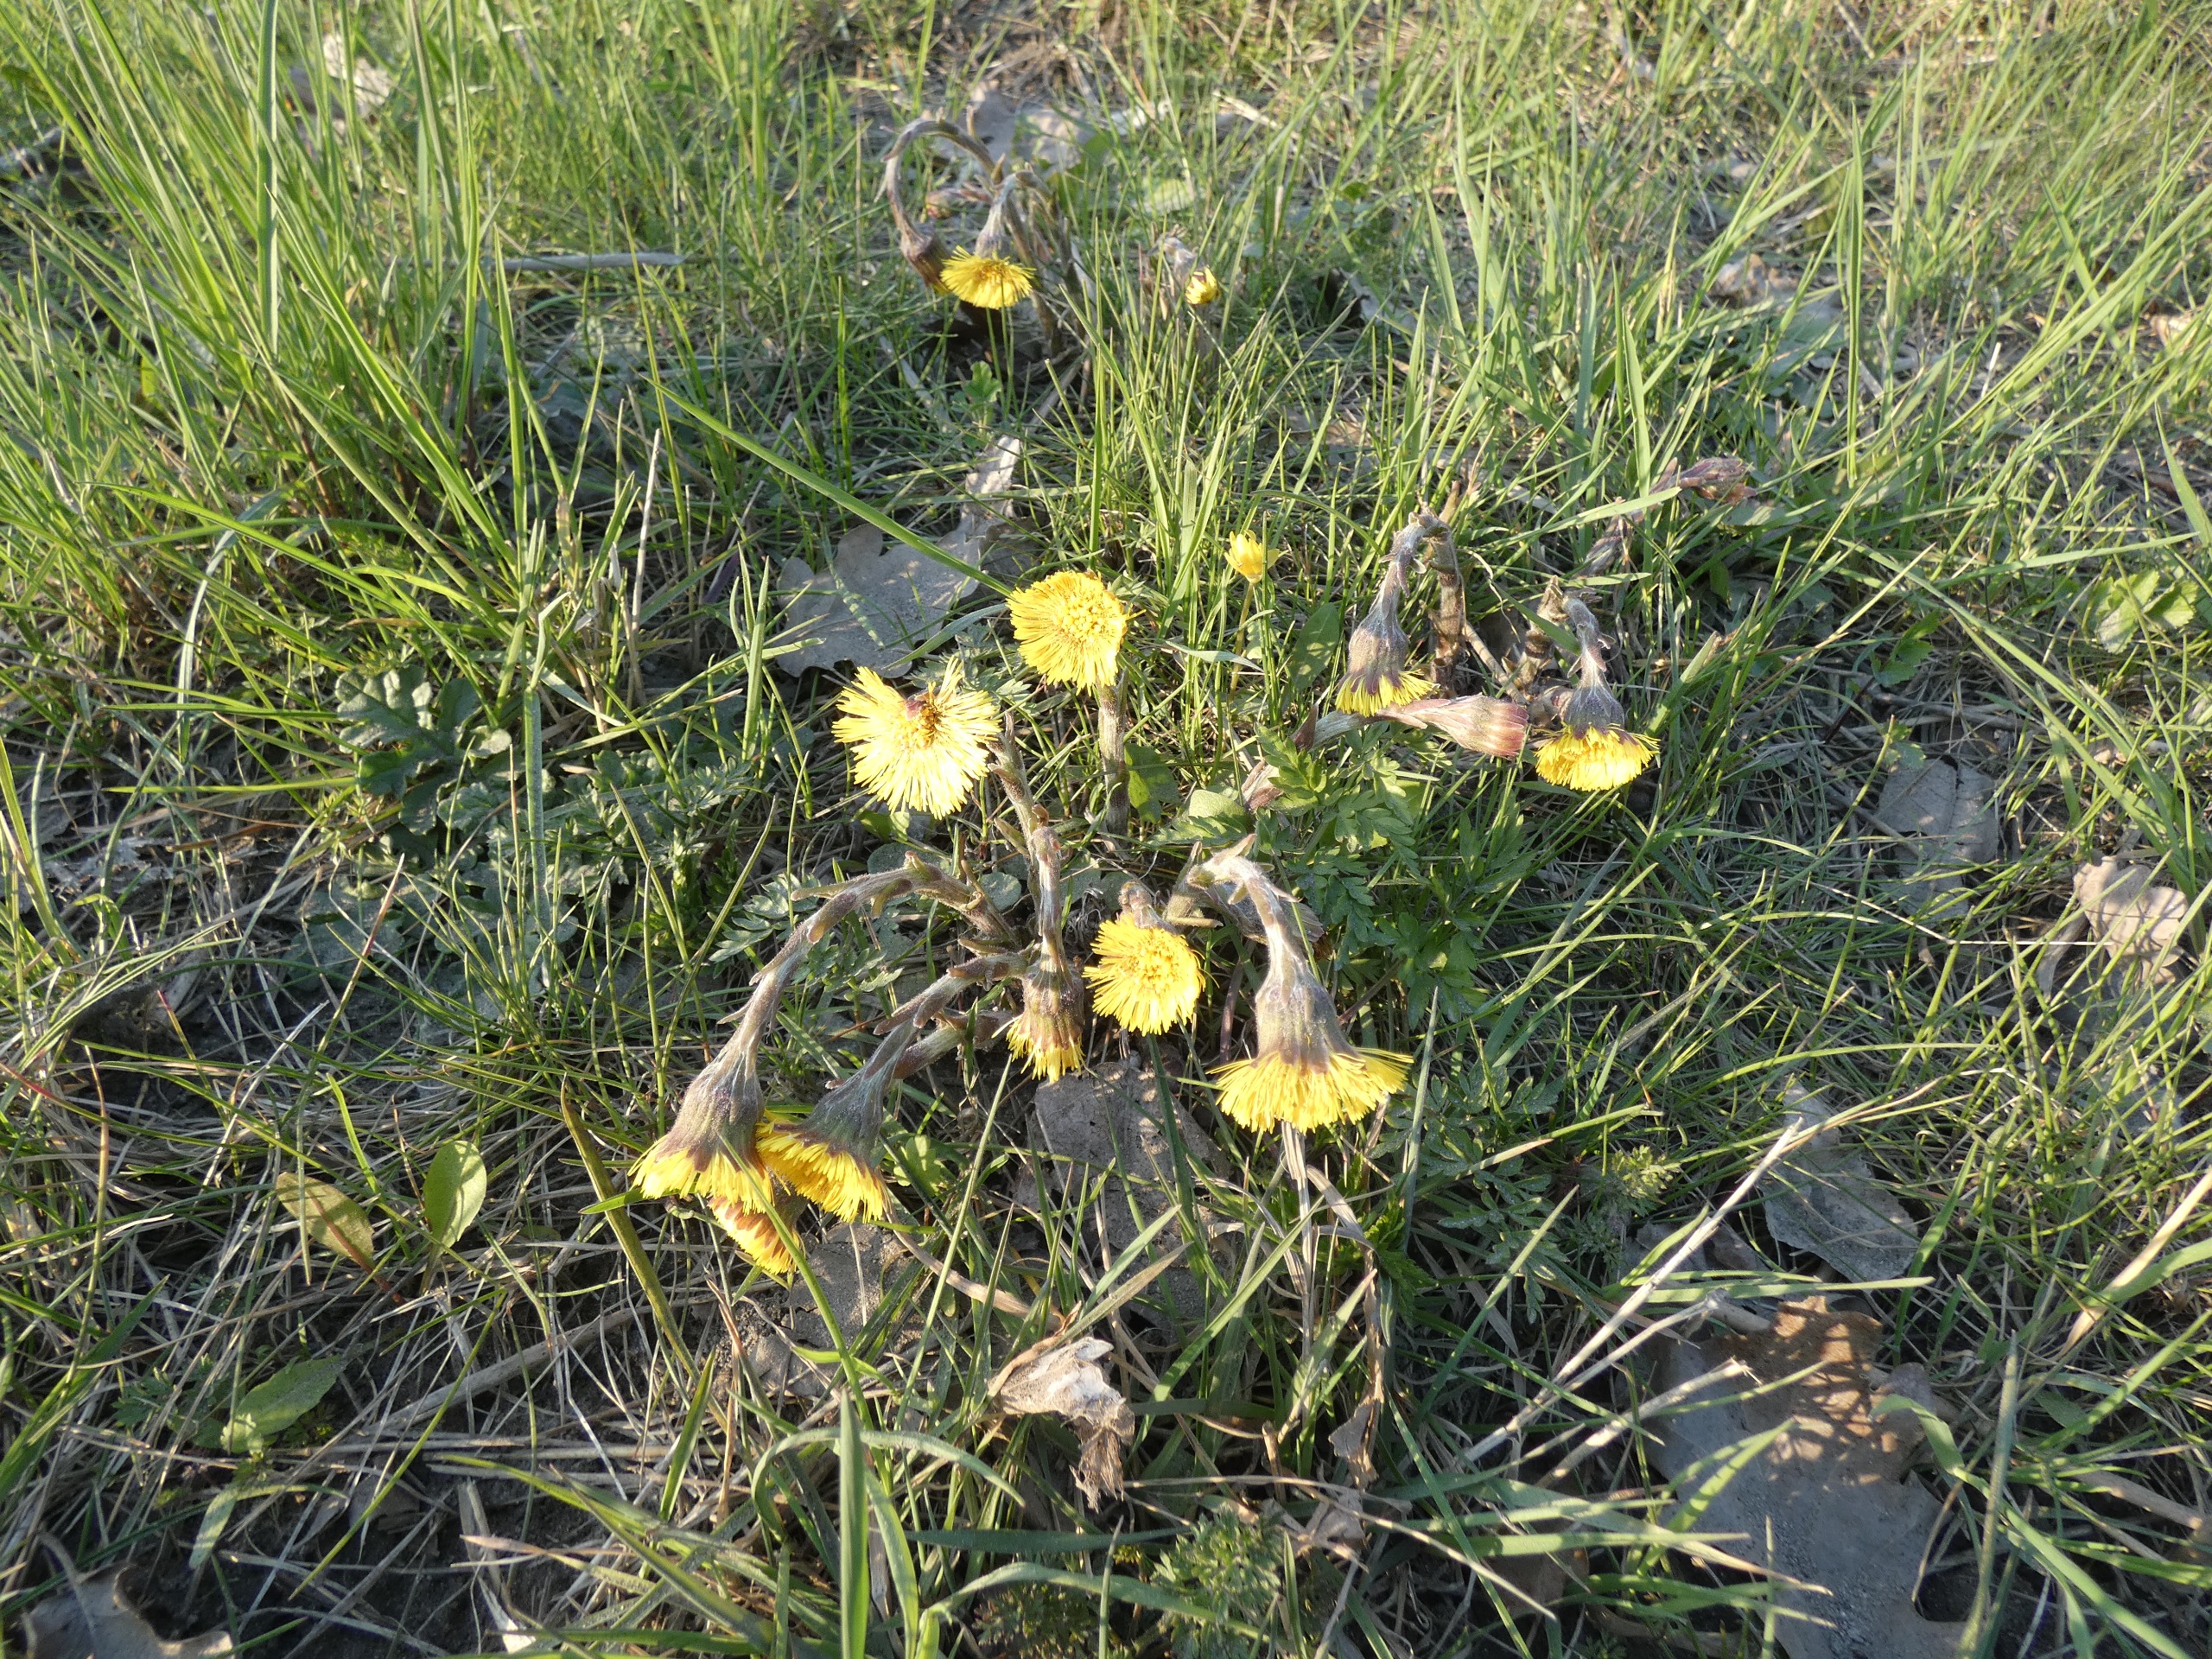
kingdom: Plantae
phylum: Tracheophyta
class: Magnoliopsida
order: Asterales
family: Asteraceae
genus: Tussilago
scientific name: Tussilago farfara
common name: Følfod
